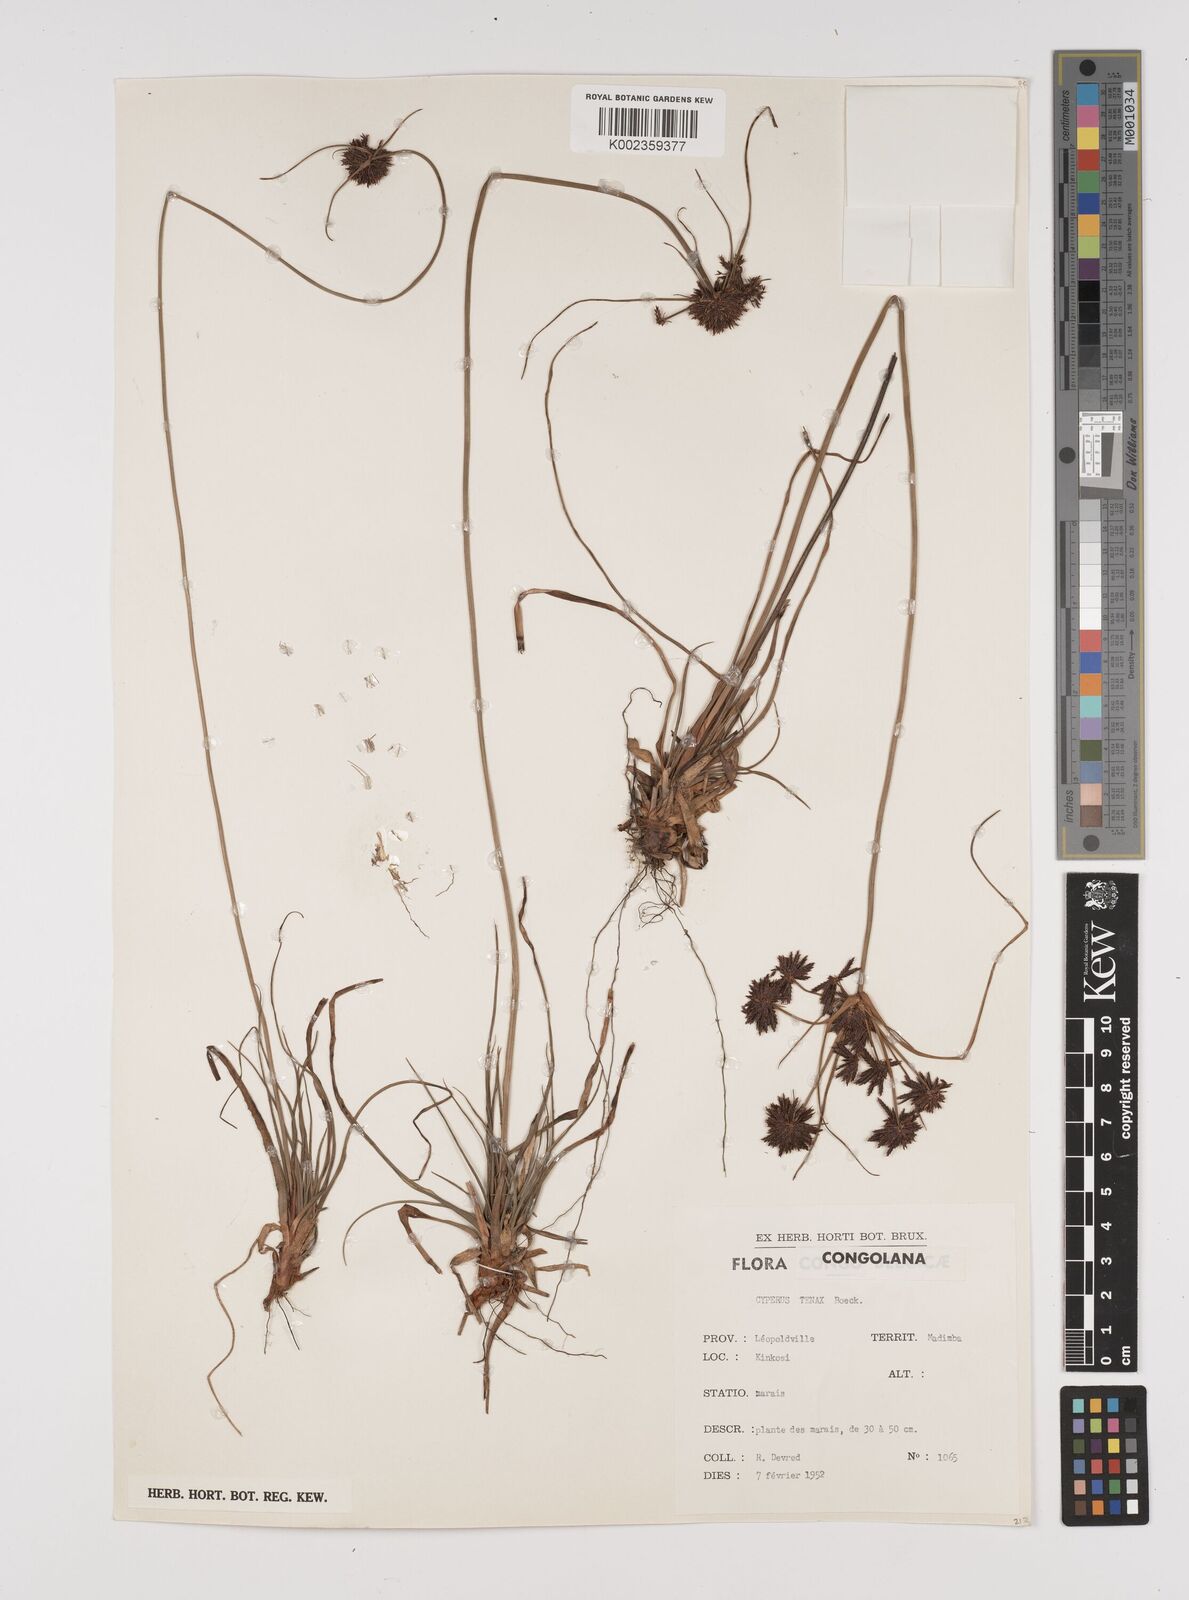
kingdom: Plantae
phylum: Tracheophyta
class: Liliopsida
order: Poales
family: Cyperaceae
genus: Cyperus
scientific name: Cyperus tenax
